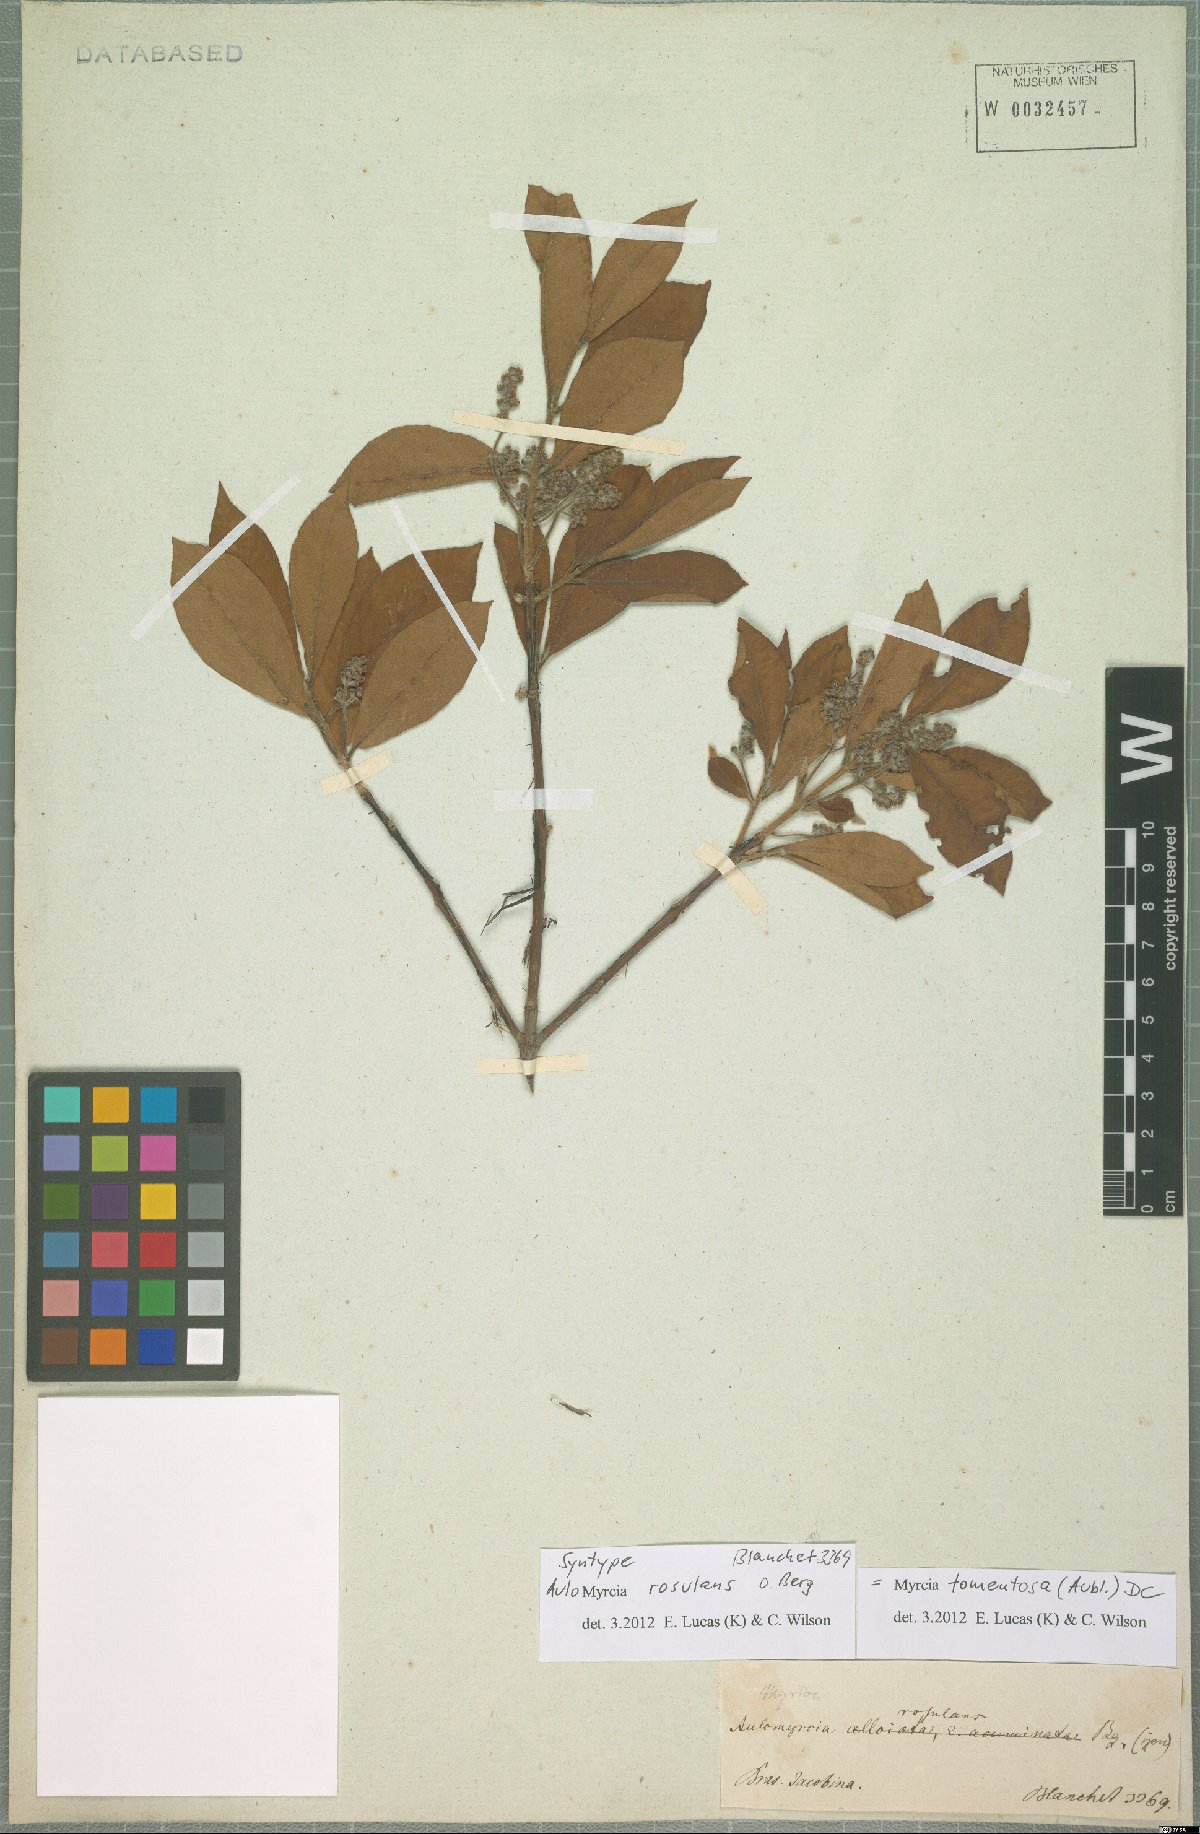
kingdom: Plantae
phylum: Tracheophyta
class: Magnoliopsida
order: Myrtales
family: Myrtaceae
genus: Myrcia
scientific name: Myrcia tomentosa
